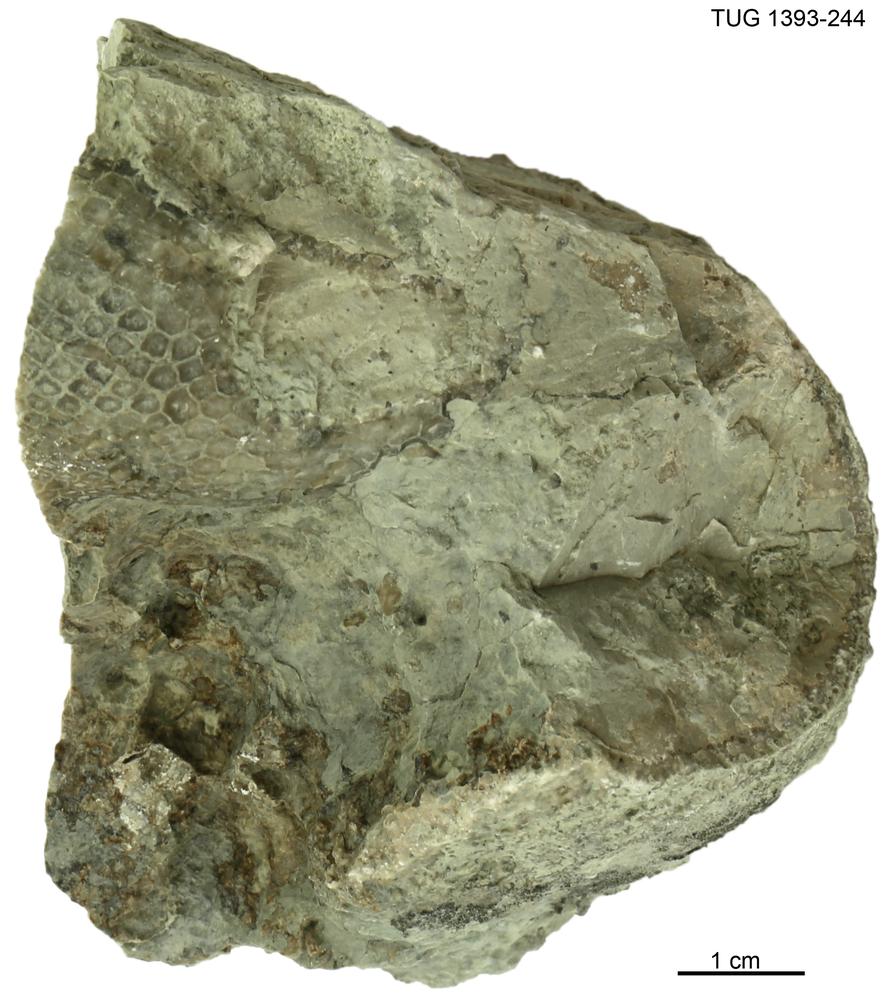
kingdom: Plantae
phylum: Chlorophyta
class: Chlorophyceae
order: Receptaculitales
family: Receptaculitaceae
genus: Receptaculites
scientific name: Receptaculites
